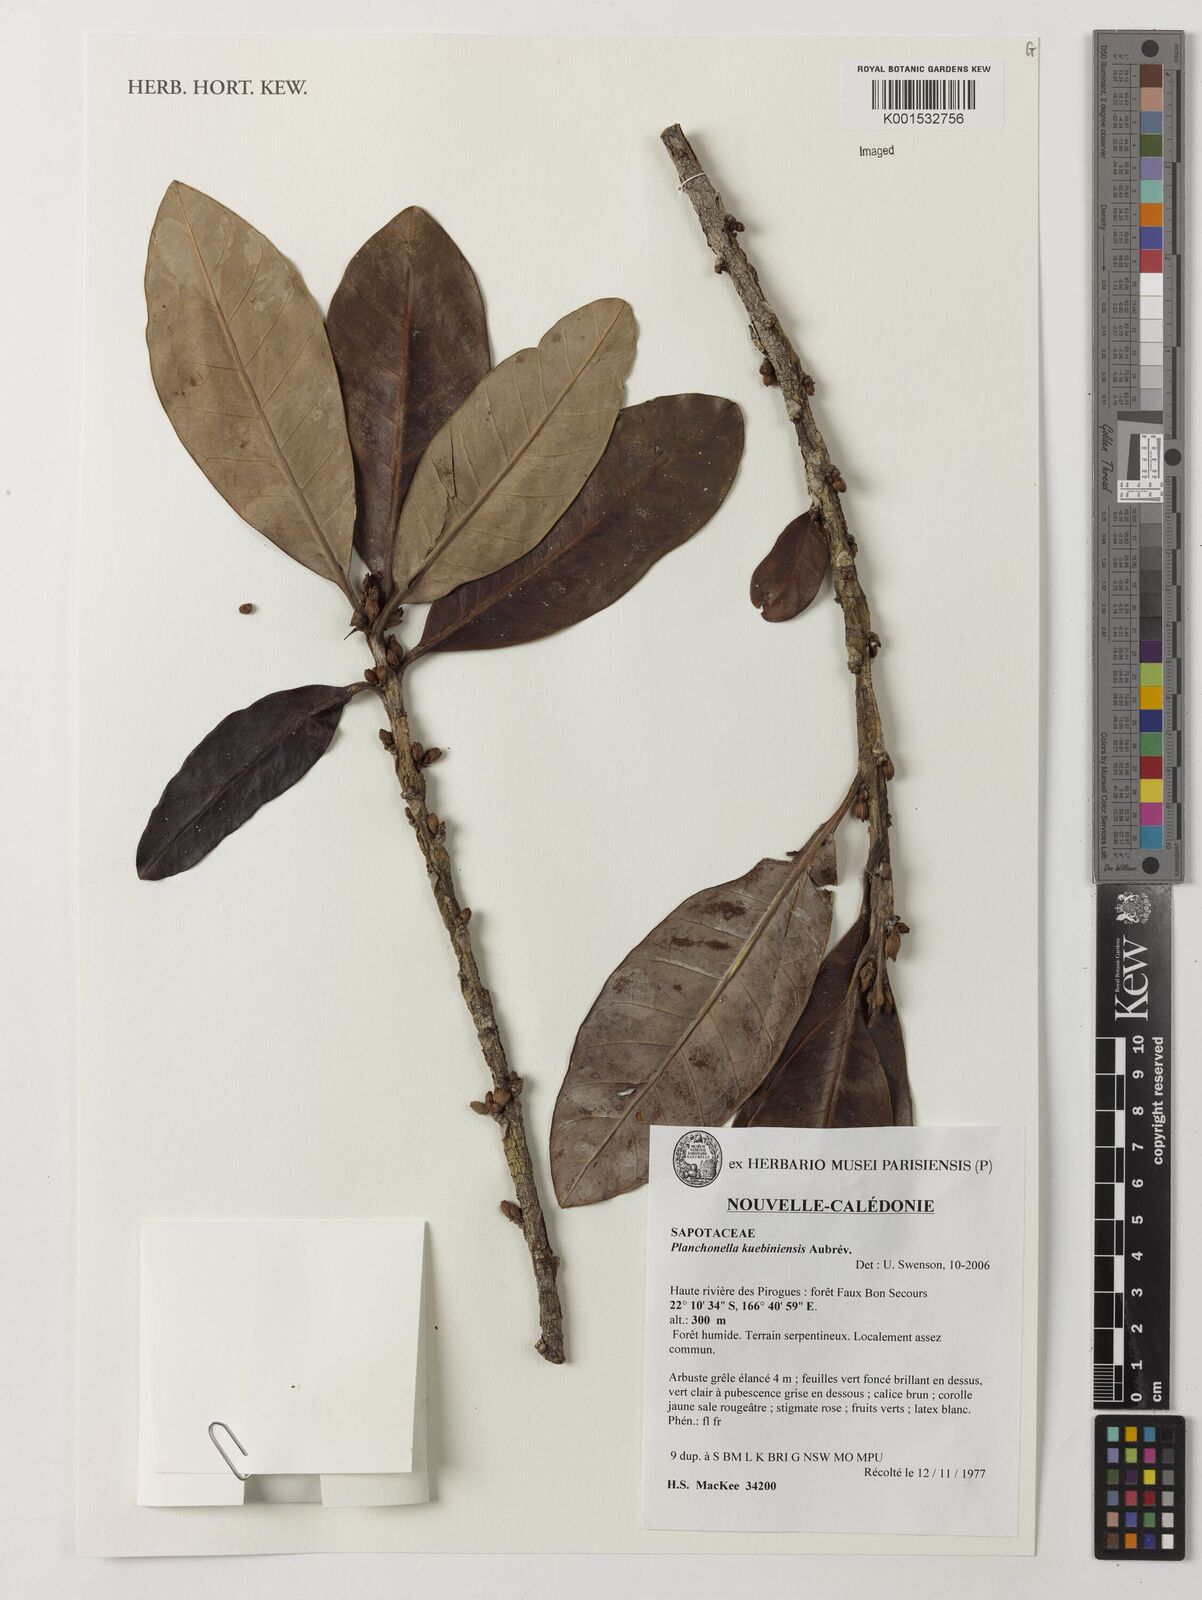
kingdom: Plantae
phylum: Tracheophyta
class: Magnoliopsida
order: Ericales
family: Sapotaceae
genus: Planchonella
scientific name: Planchonella kuebiniensis
